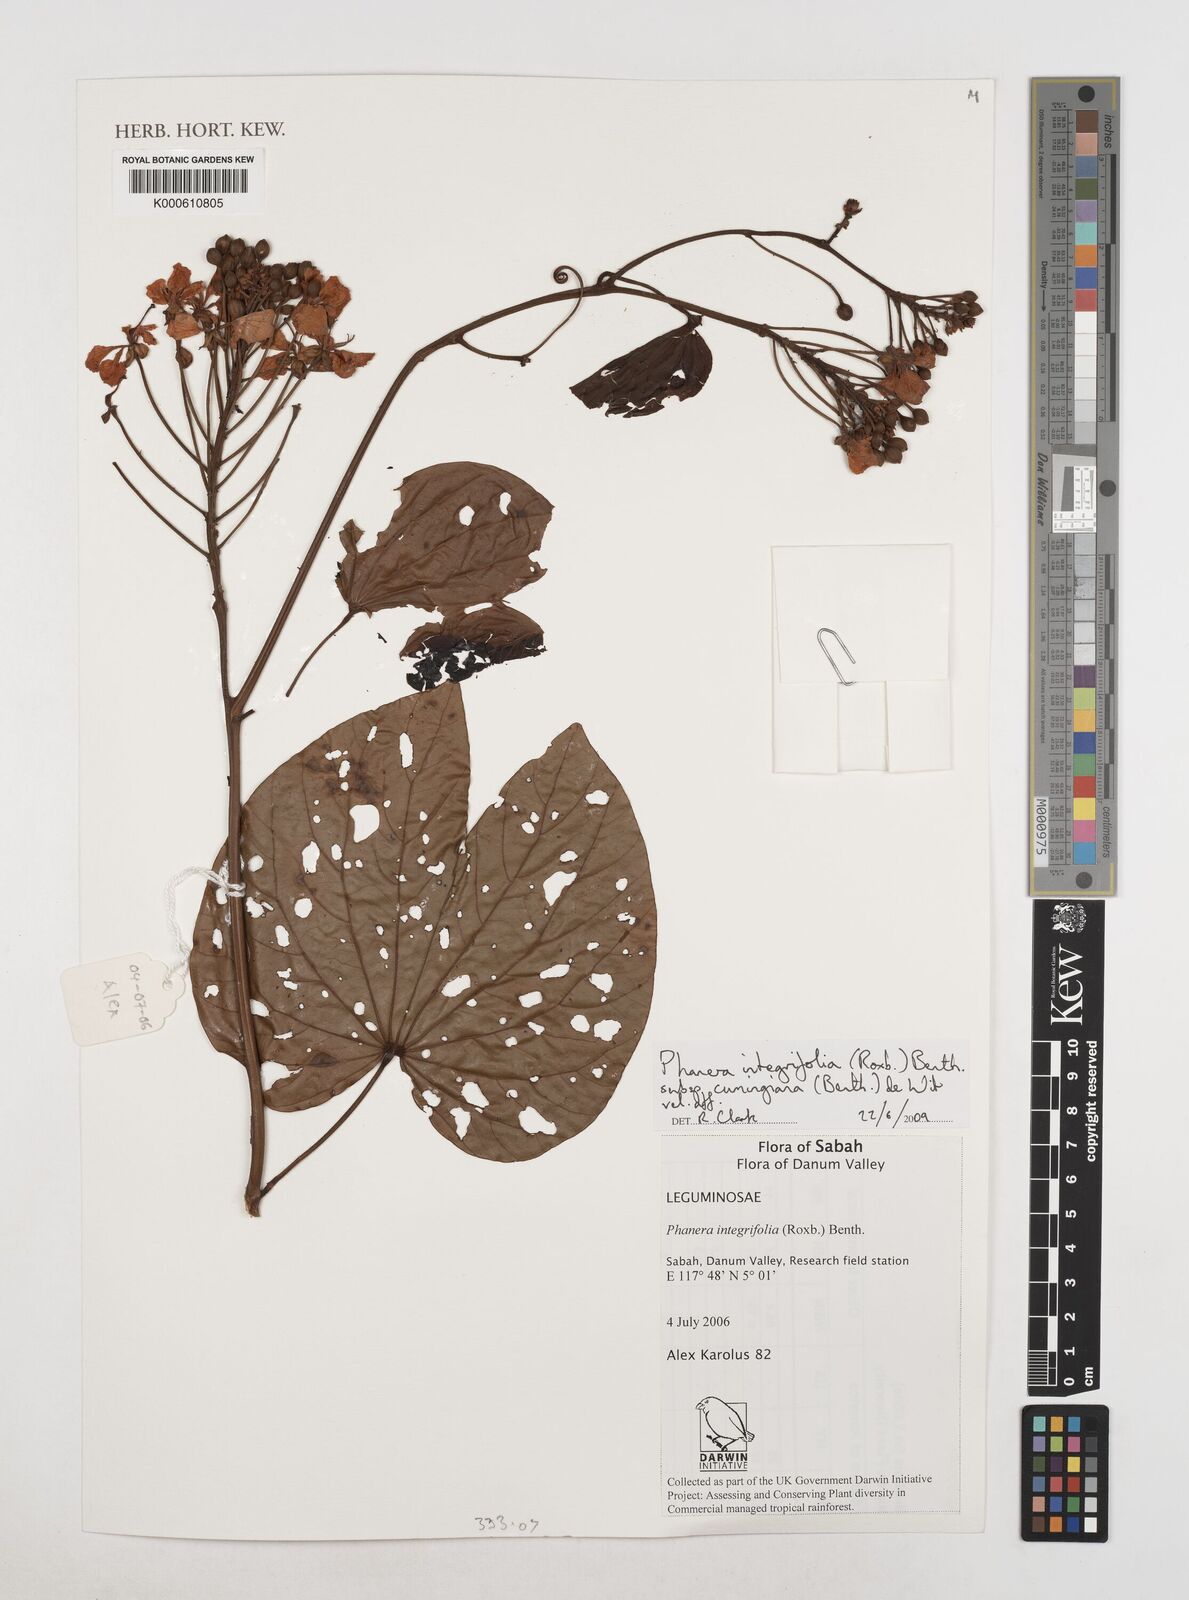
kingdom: Plantae
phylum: Tracheophyta
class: Magnoliopsida
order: Fabales
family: Fabaceae
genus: Phanera
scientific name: Phanera integrifolia
